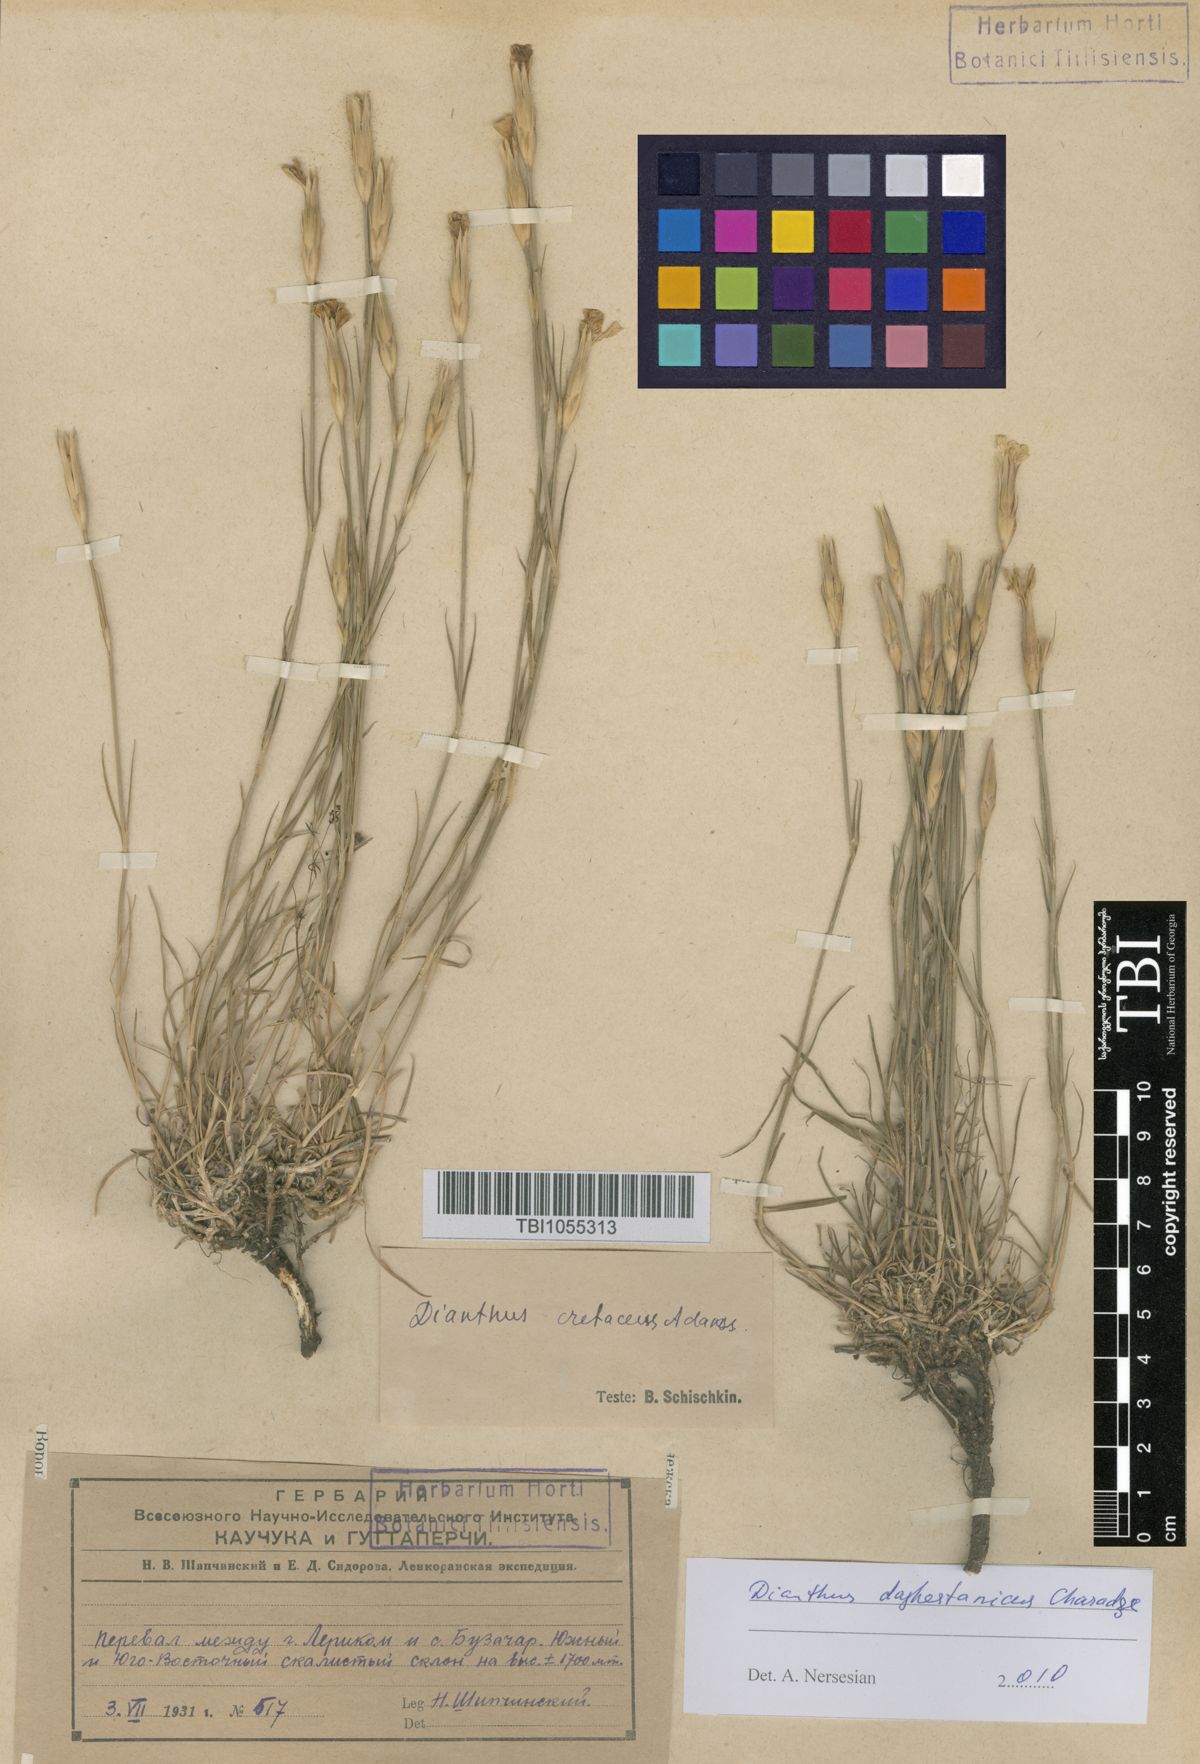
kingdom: Plantae
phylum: Tracheophyta
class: Magnoliopsida
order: Caryophyllales
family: Caryophyllaceae
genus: Dianthus
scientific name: Dianthus cretaceus
